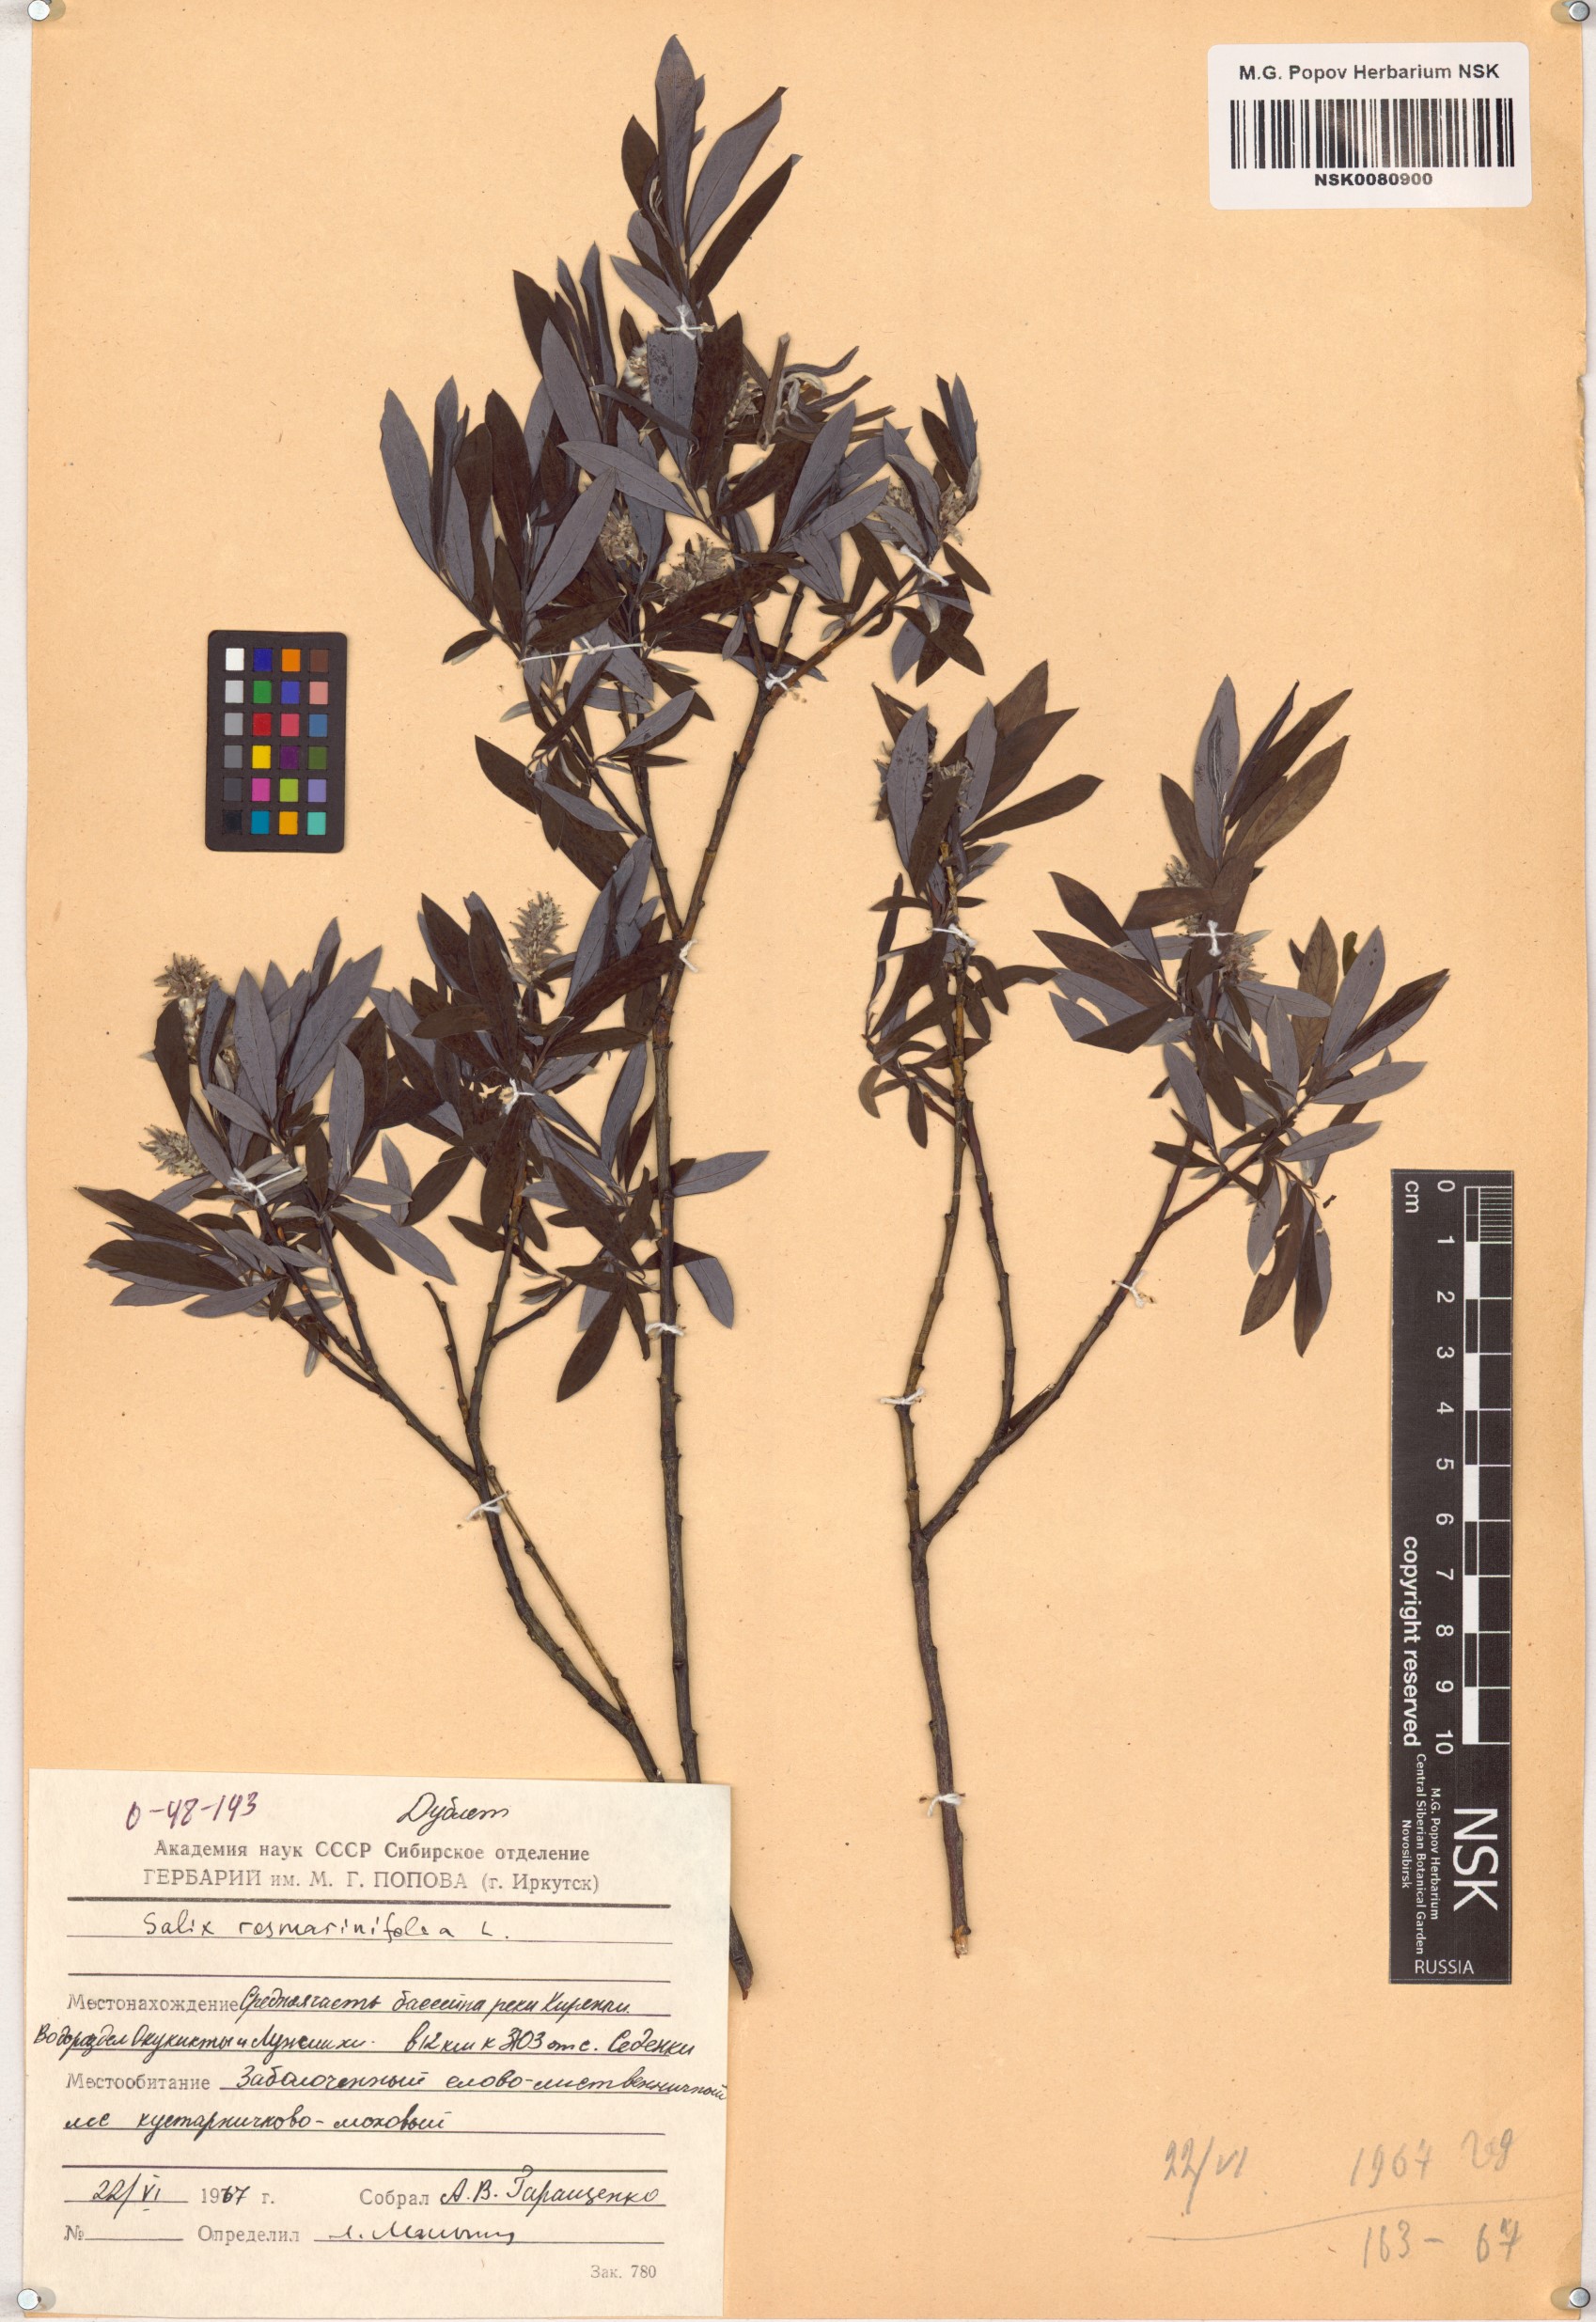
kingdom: Plantae
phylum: Tracheophyta
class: Magnoliopsida
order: Malpighiales
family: Salicaceae
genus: Salix
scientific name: Salix rosmarinifolia
